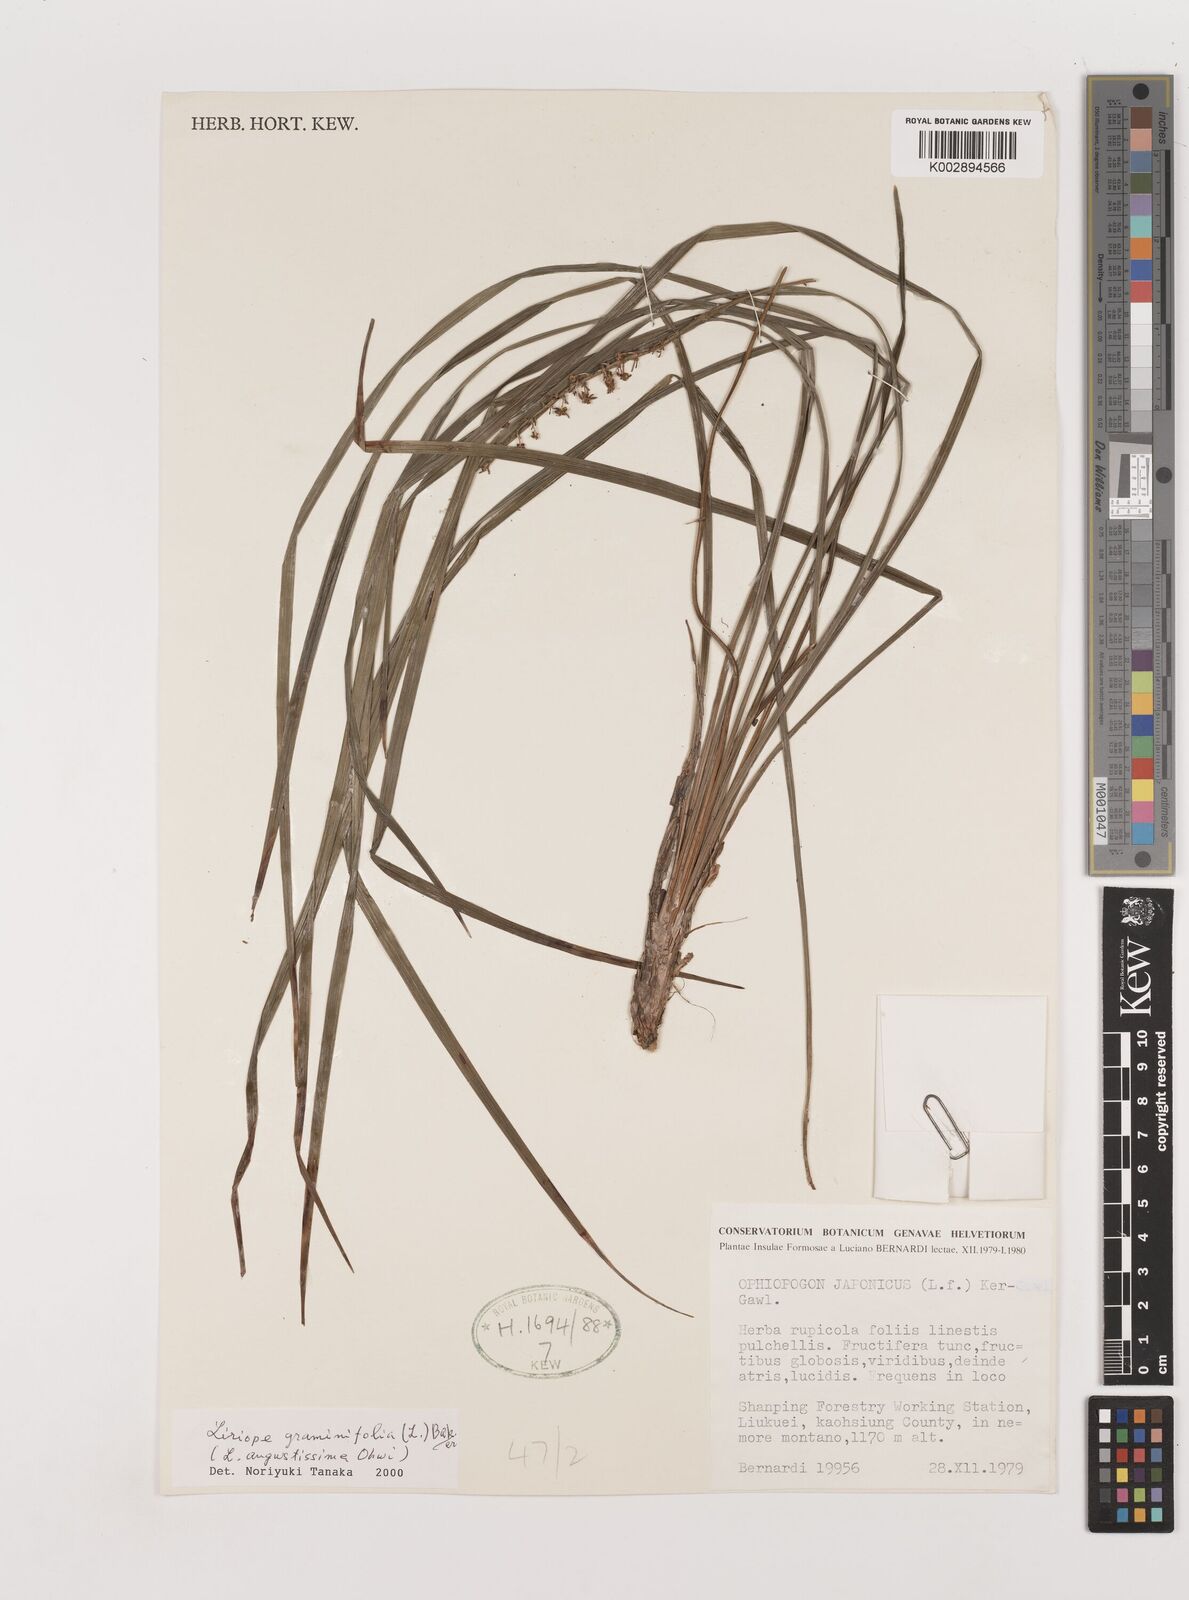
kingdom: Plantae
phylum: Tracheophyta
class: Liliopsida
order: Asparagales
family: Asparagaceae
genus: Liriope
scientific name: Liriope spicata
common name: Creeping liriope
